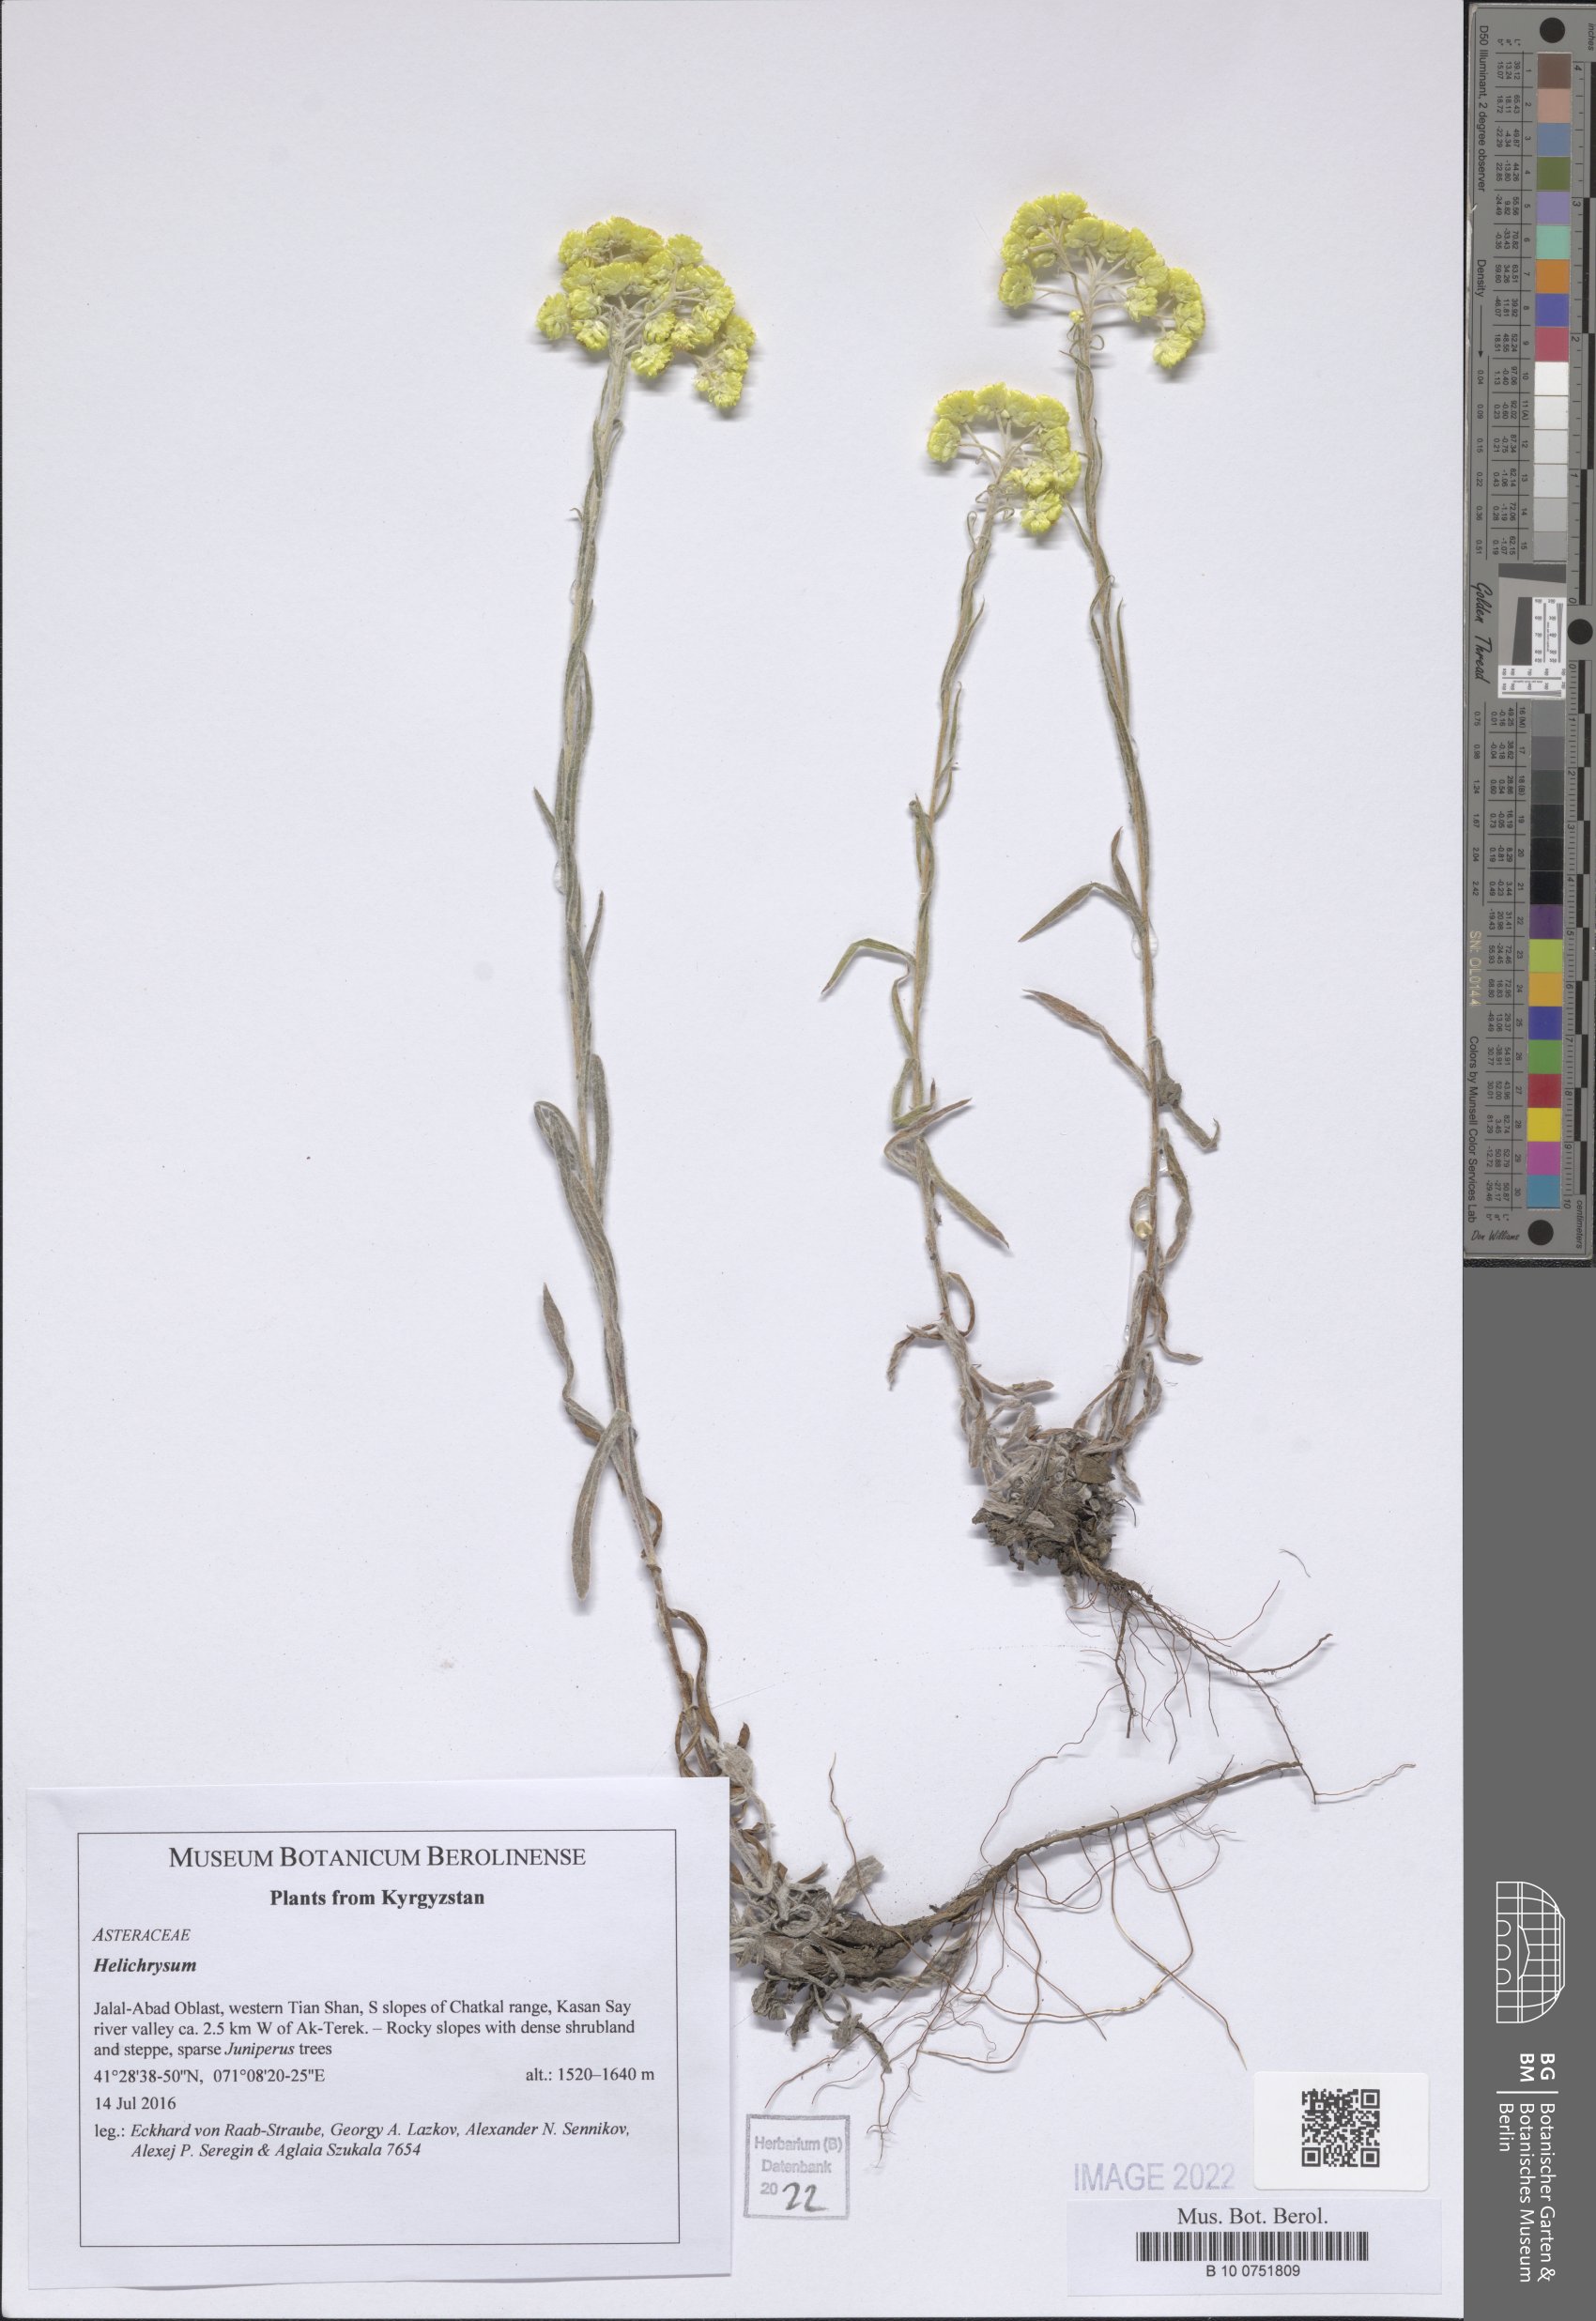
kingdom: Plantae
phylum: Tracheophyta
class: Magnoliopsida
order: Asterales
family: Asteraceae
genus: Helichrysum
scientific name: Helichrysum
